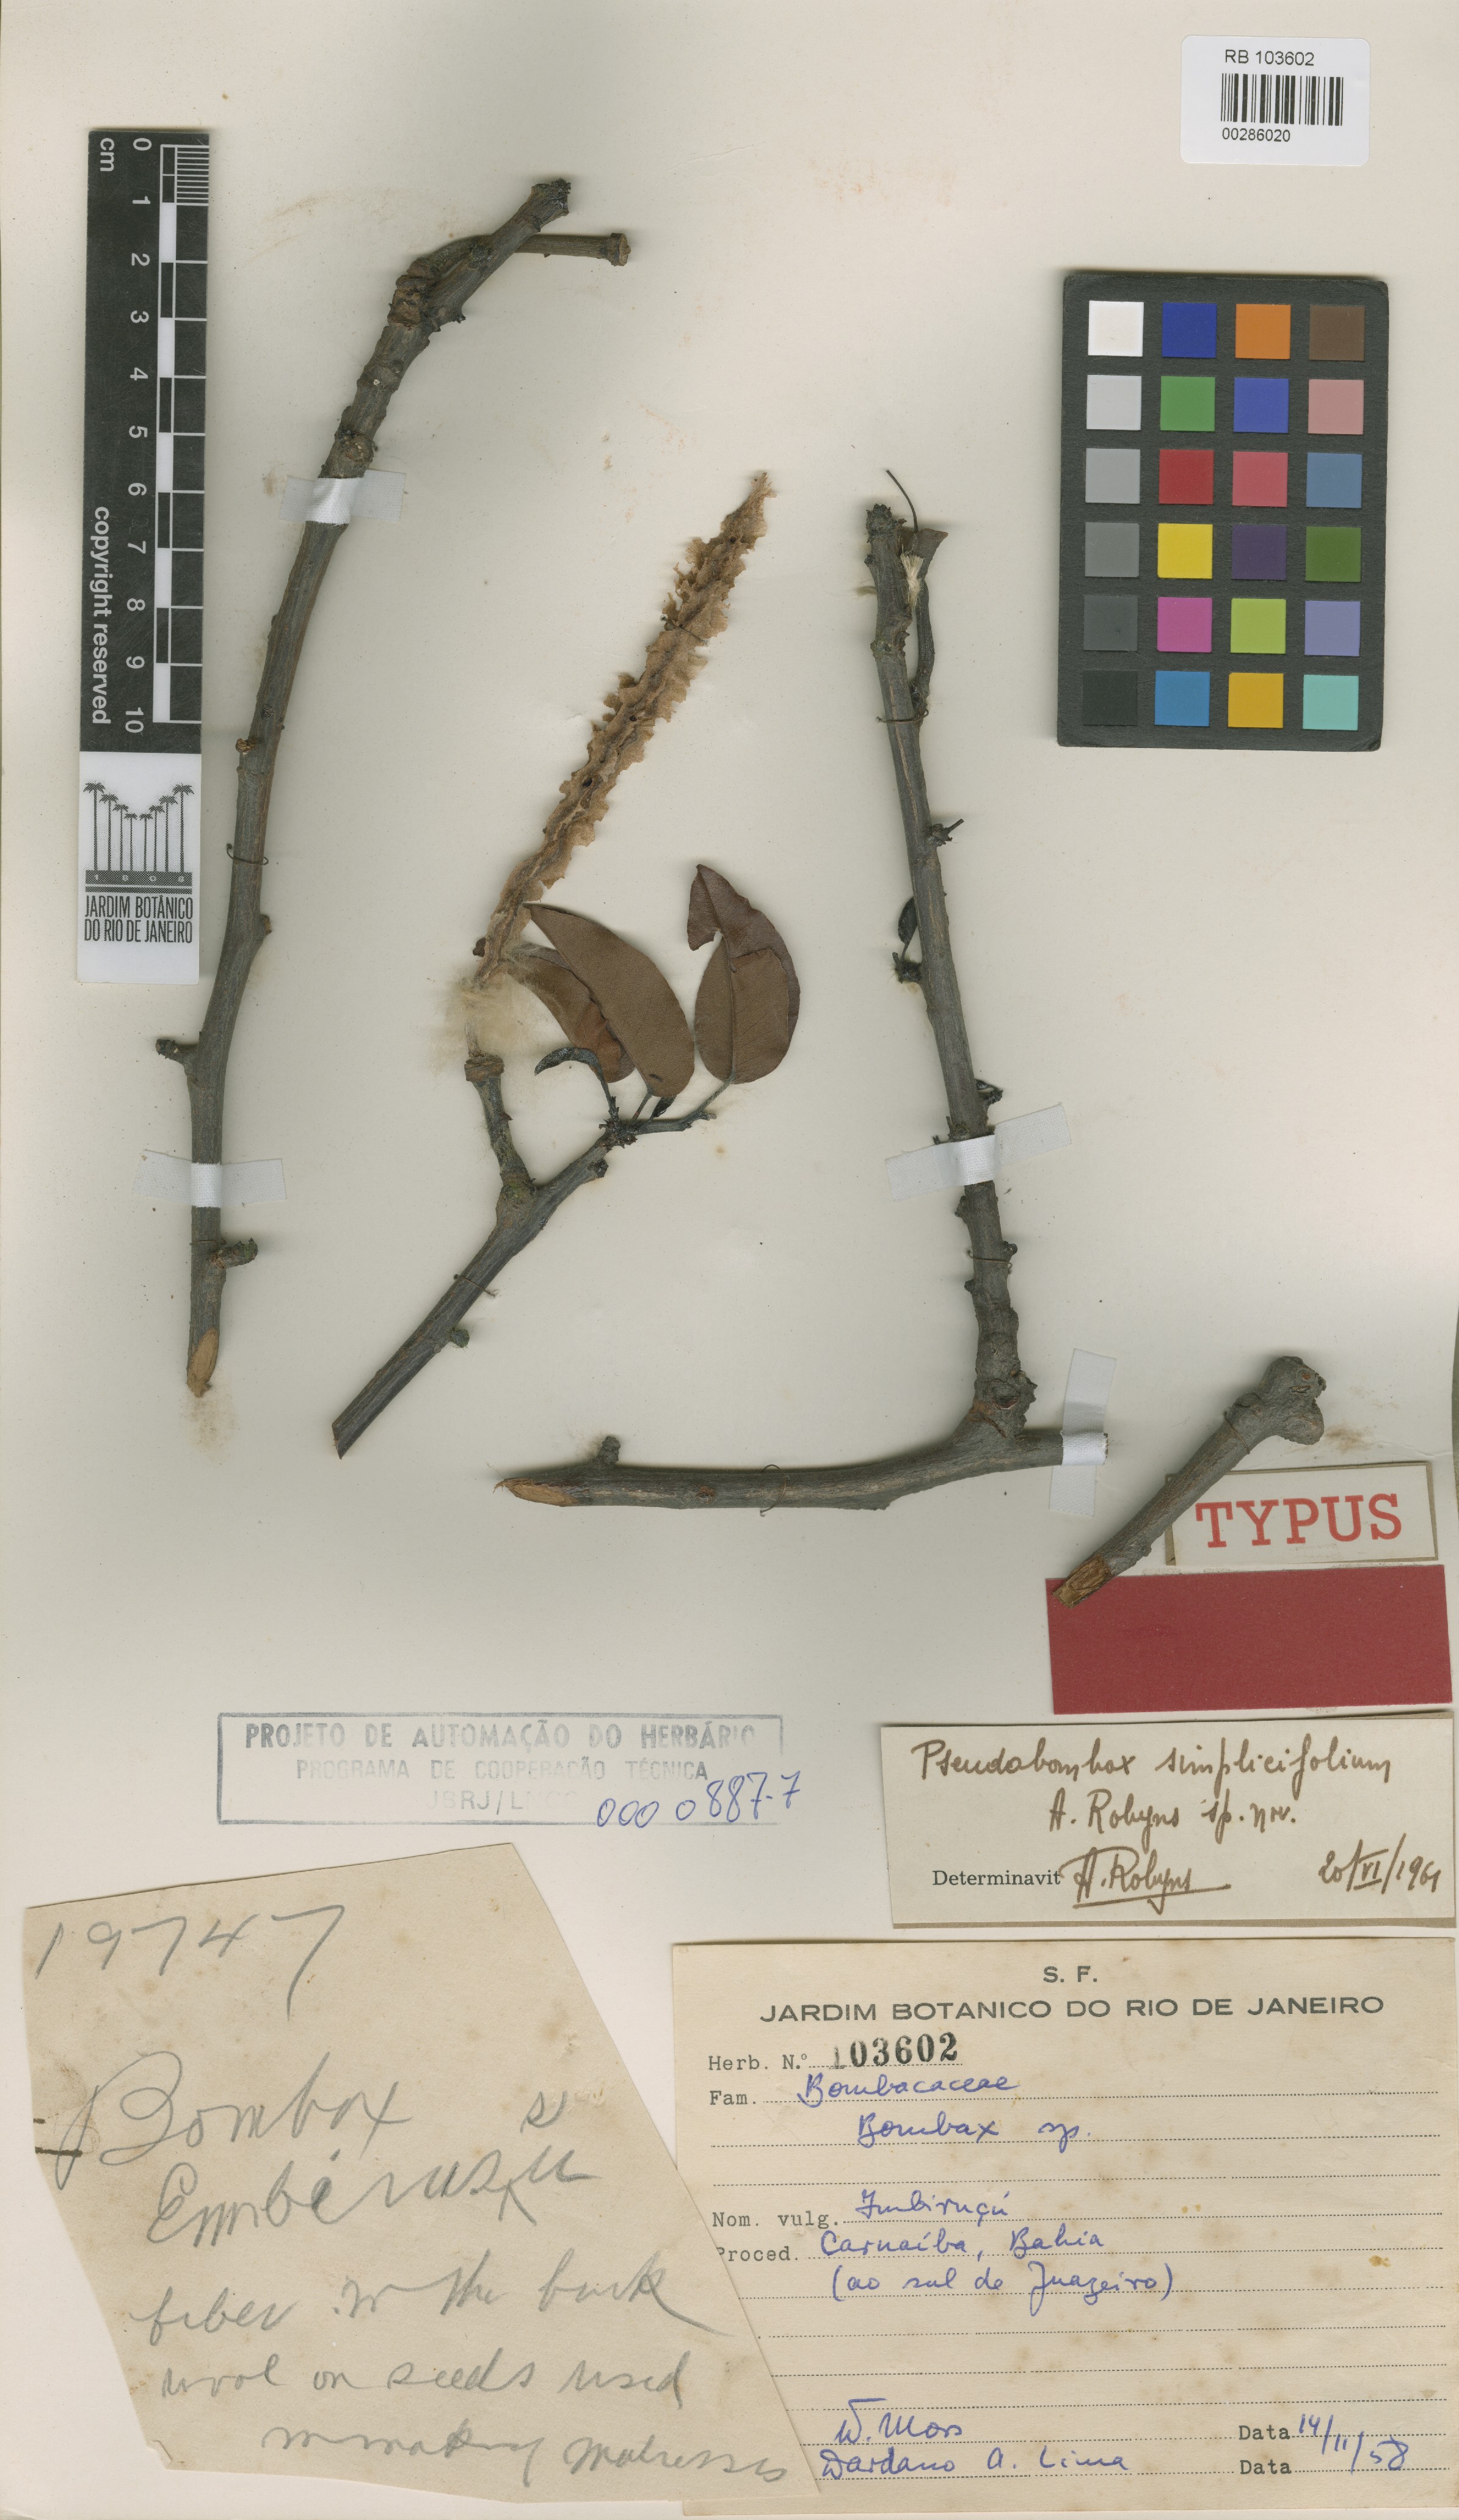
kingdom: Plantae
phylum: Tracheophyta
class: Magnoliopsida
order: Malvales
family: Malvaceae
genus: Pseudobombax
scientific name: Pseudobombax simplicifolium
